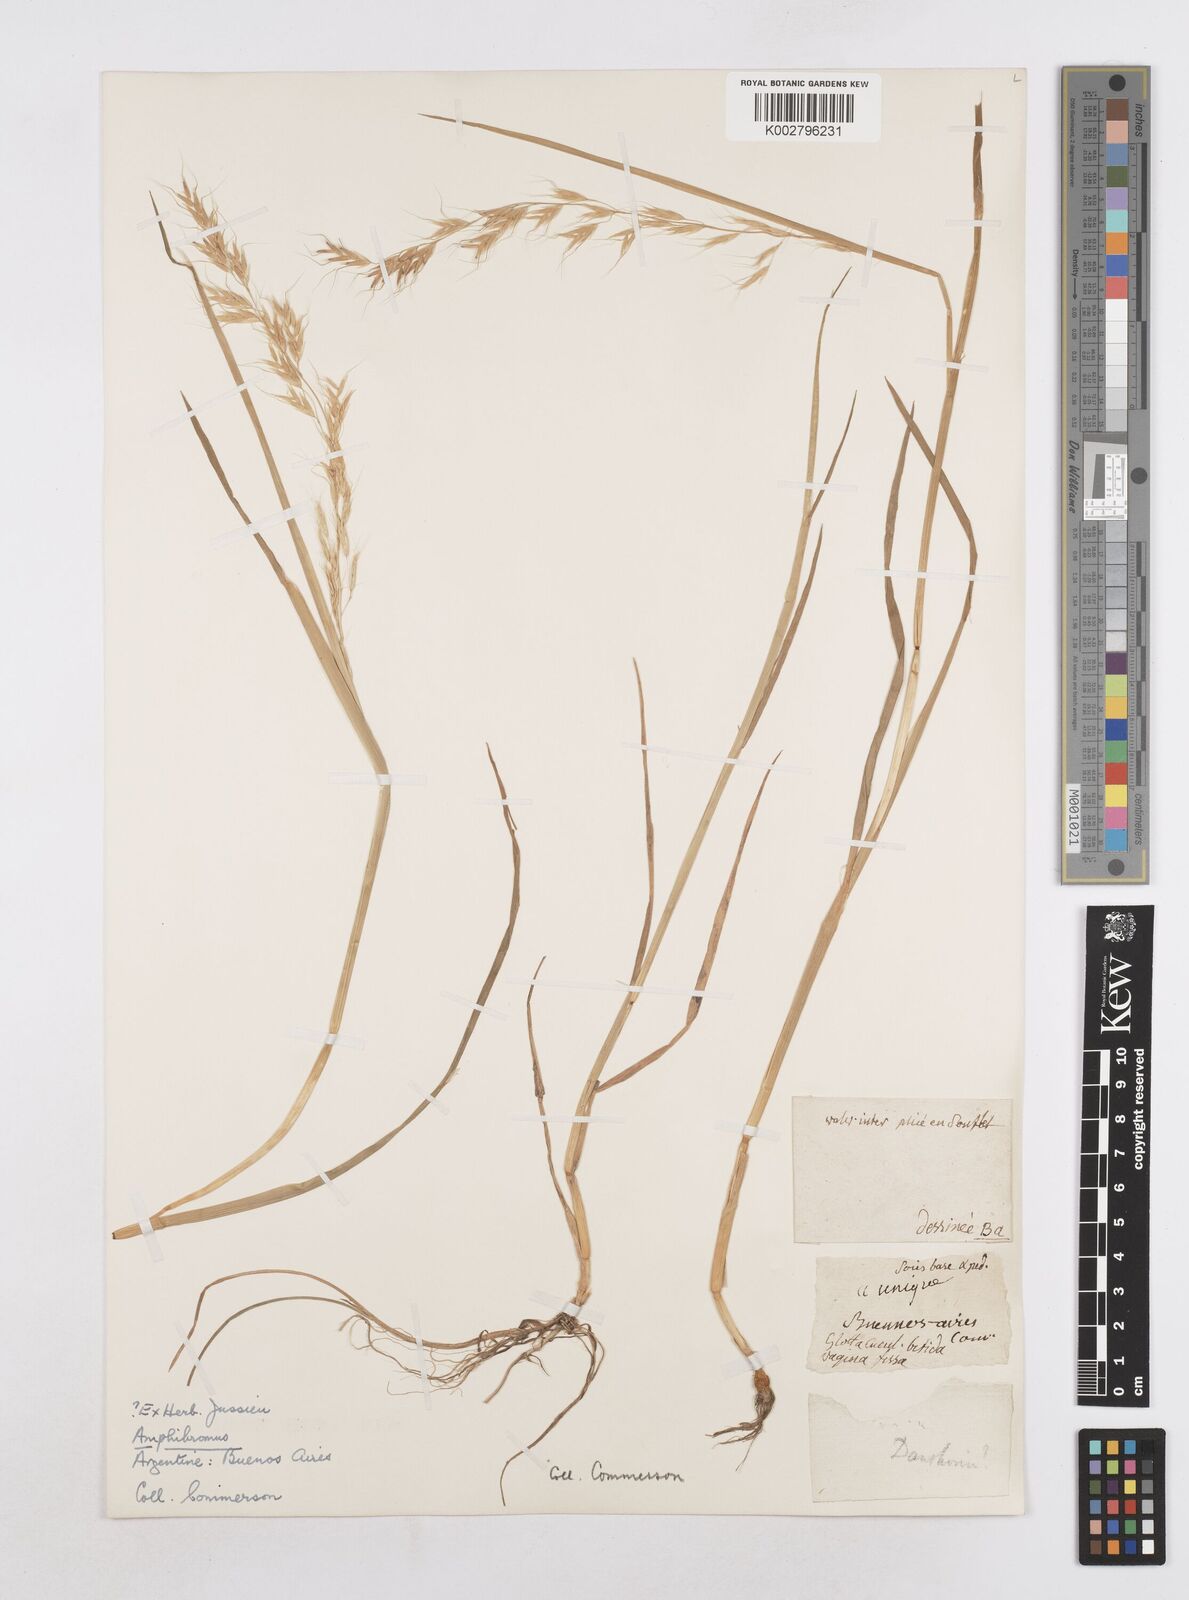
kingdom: Plantae
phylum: Tracheophyta
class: Liliopsida
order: Poales
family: Poaceae
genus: Helictotrichon
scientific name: Helictotrichon
